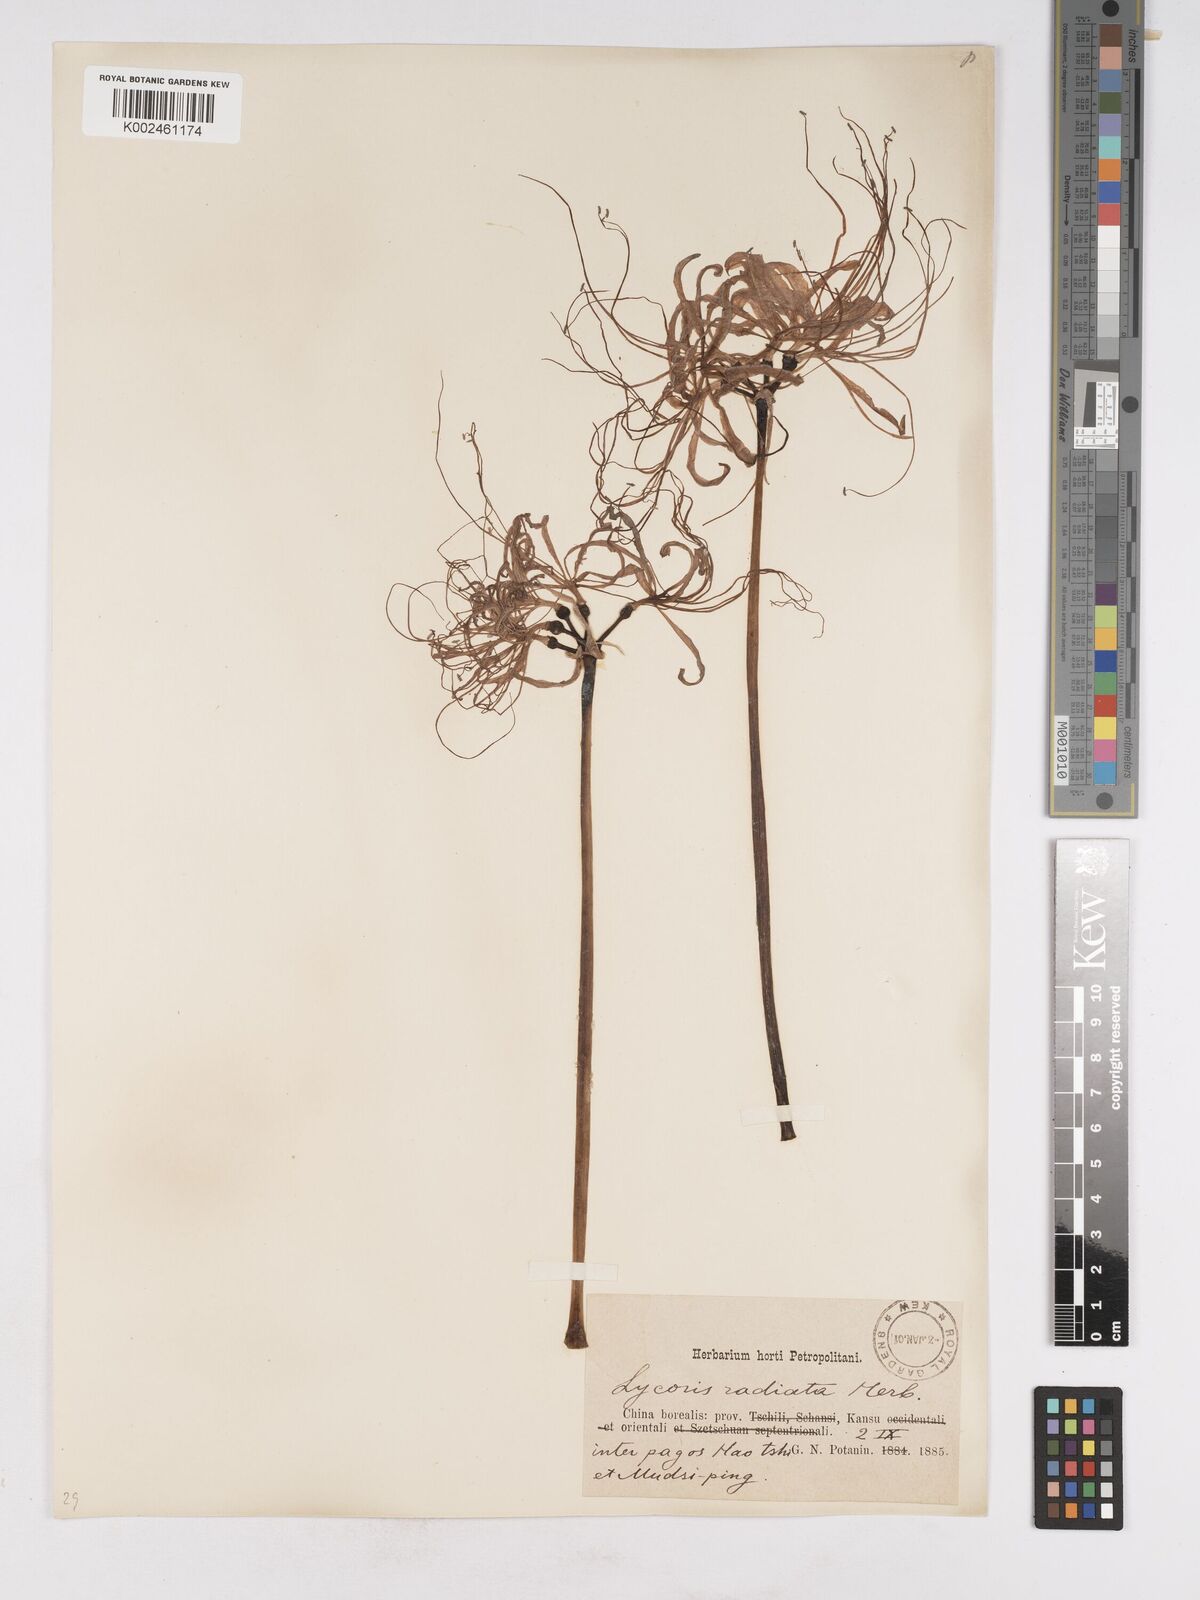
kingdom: Plantae
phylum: Tracheophyta
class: Liliopsida
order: Asparagales
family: Amaryllidaceae
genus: Lycoris
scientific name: Lycoris radiata
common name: Red spider lily
